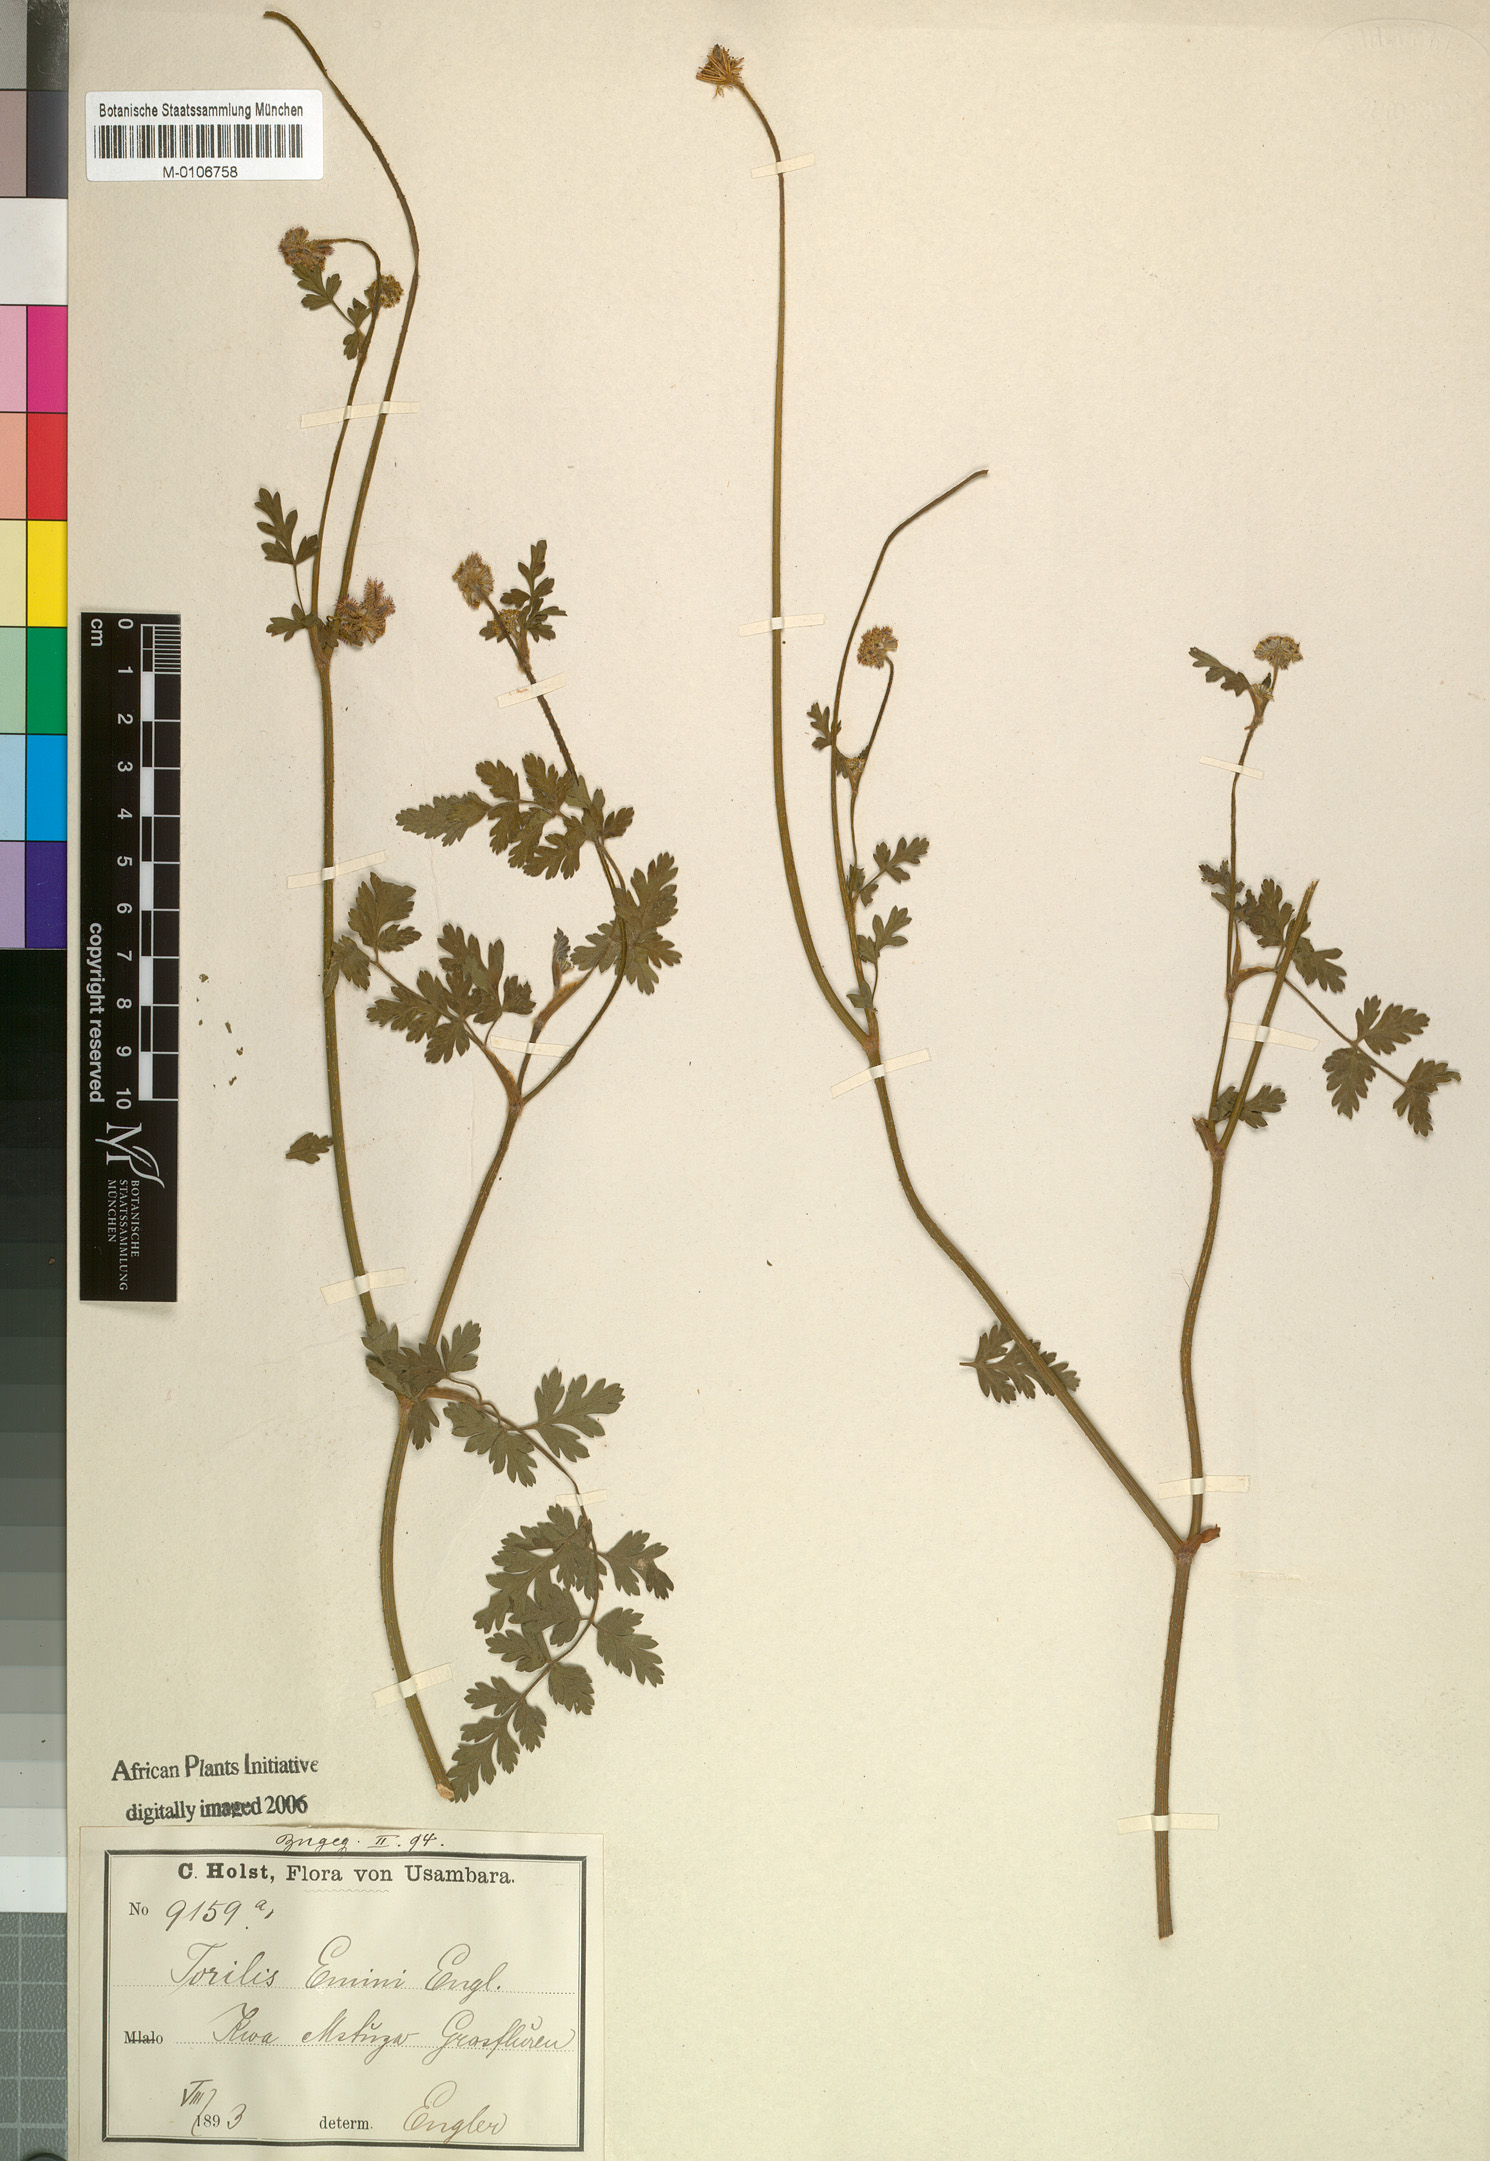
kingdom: Plantae
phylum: Tracheophyta
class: Magnoliopsida
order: Apiales
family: Apiaceae
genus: Daucus
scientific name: Daucus incognitus
